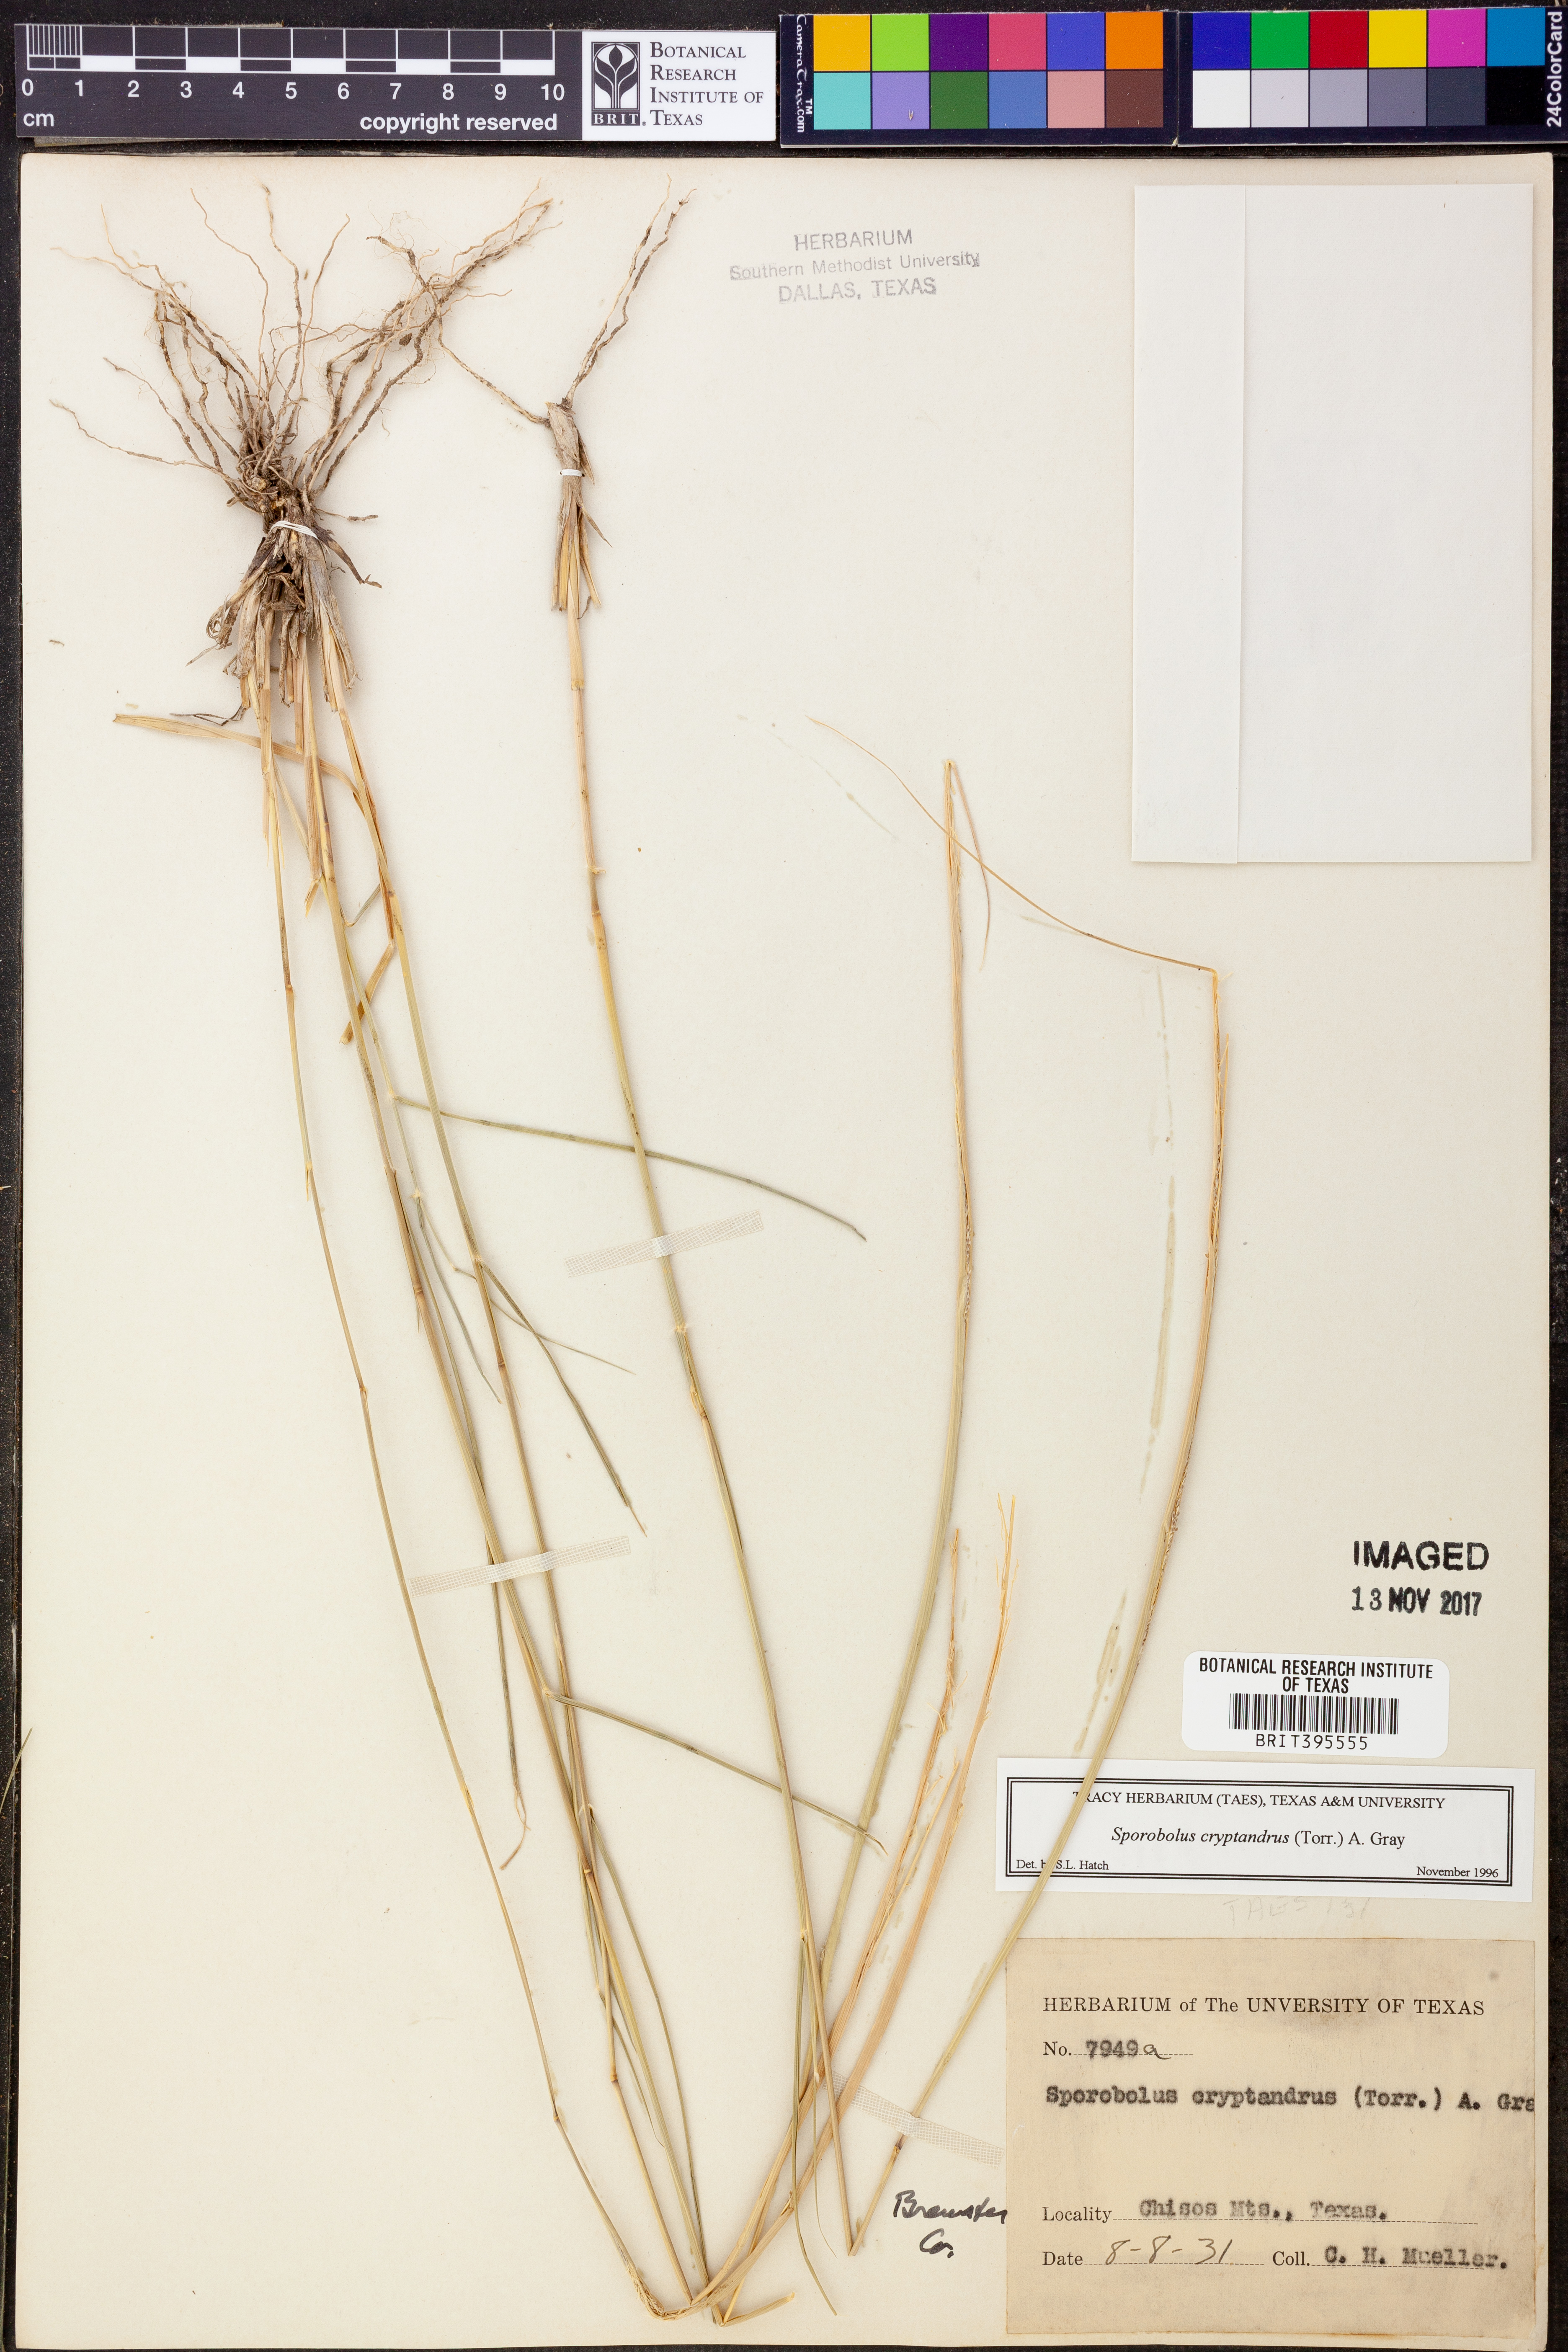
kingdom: Plantae
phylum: Tracheophyta
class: Liliopsida
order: Poales
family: Poaceae
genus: Sporobolus
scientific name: Sporobolus cryptandrus
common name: Sand dropseed
